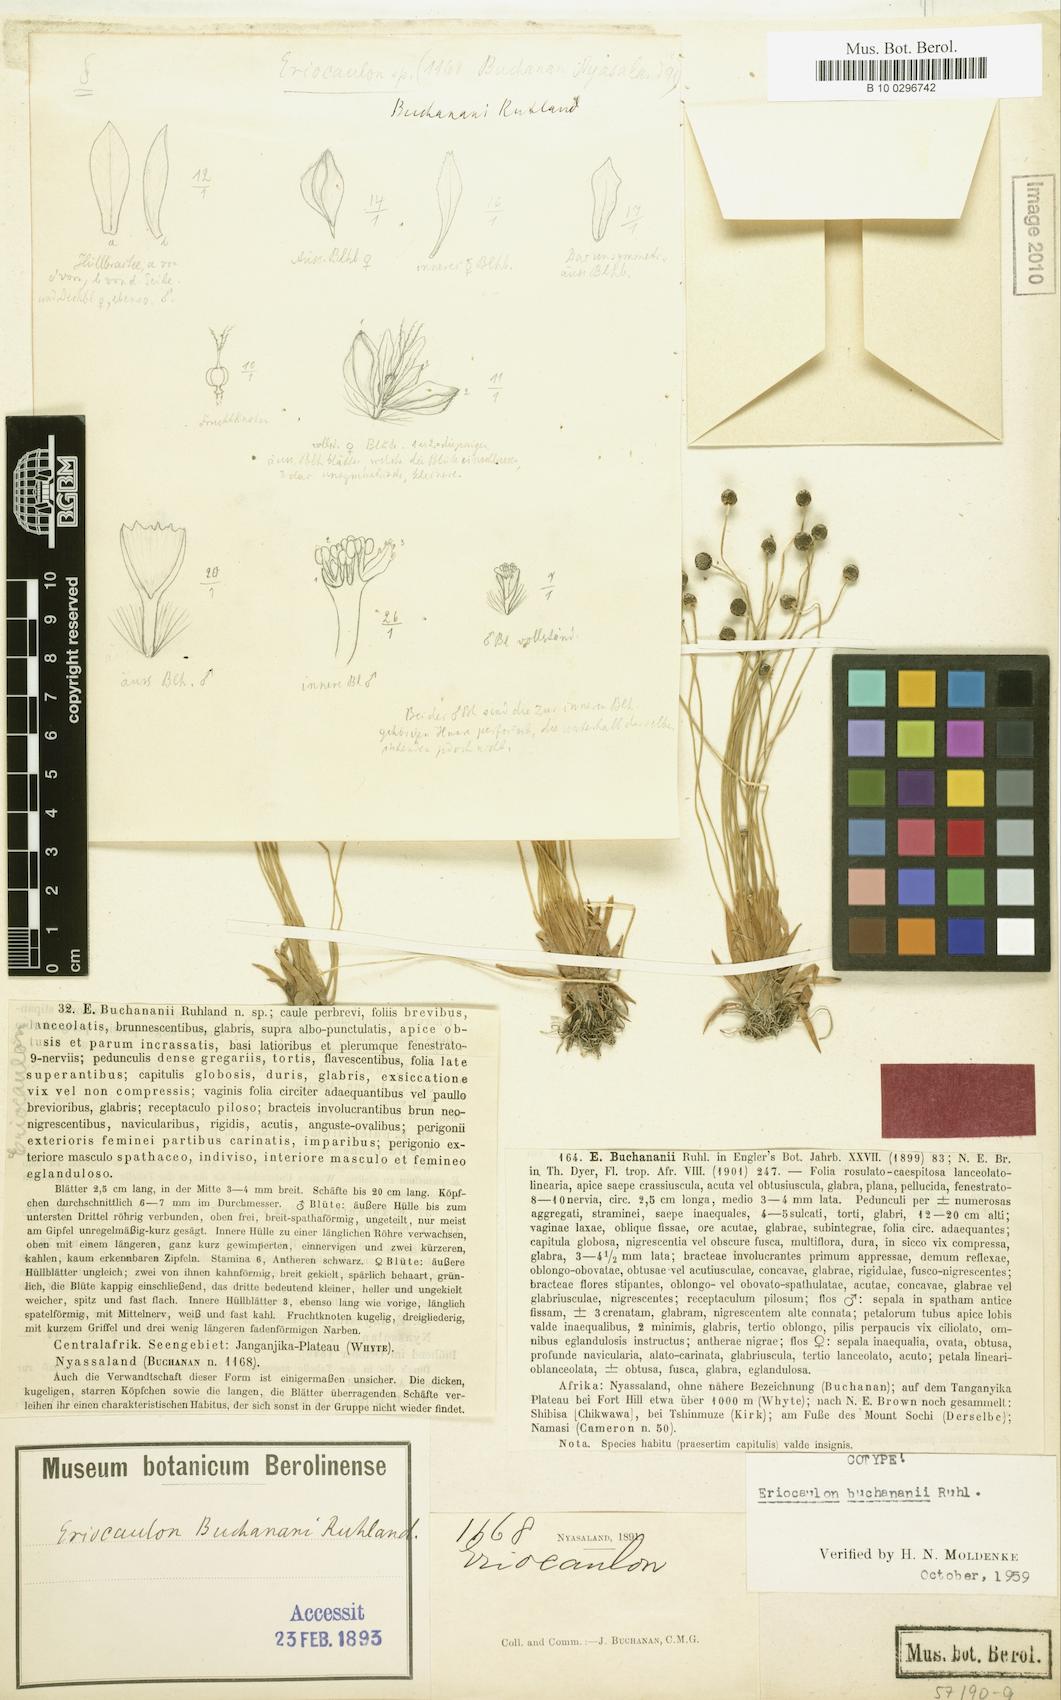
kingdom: Plantae
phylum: Tracheophyta
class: Liliopsida
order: Poales
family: Eriocaulaceae
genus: Eriocaulon
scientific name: Eriocaulon buchananii
